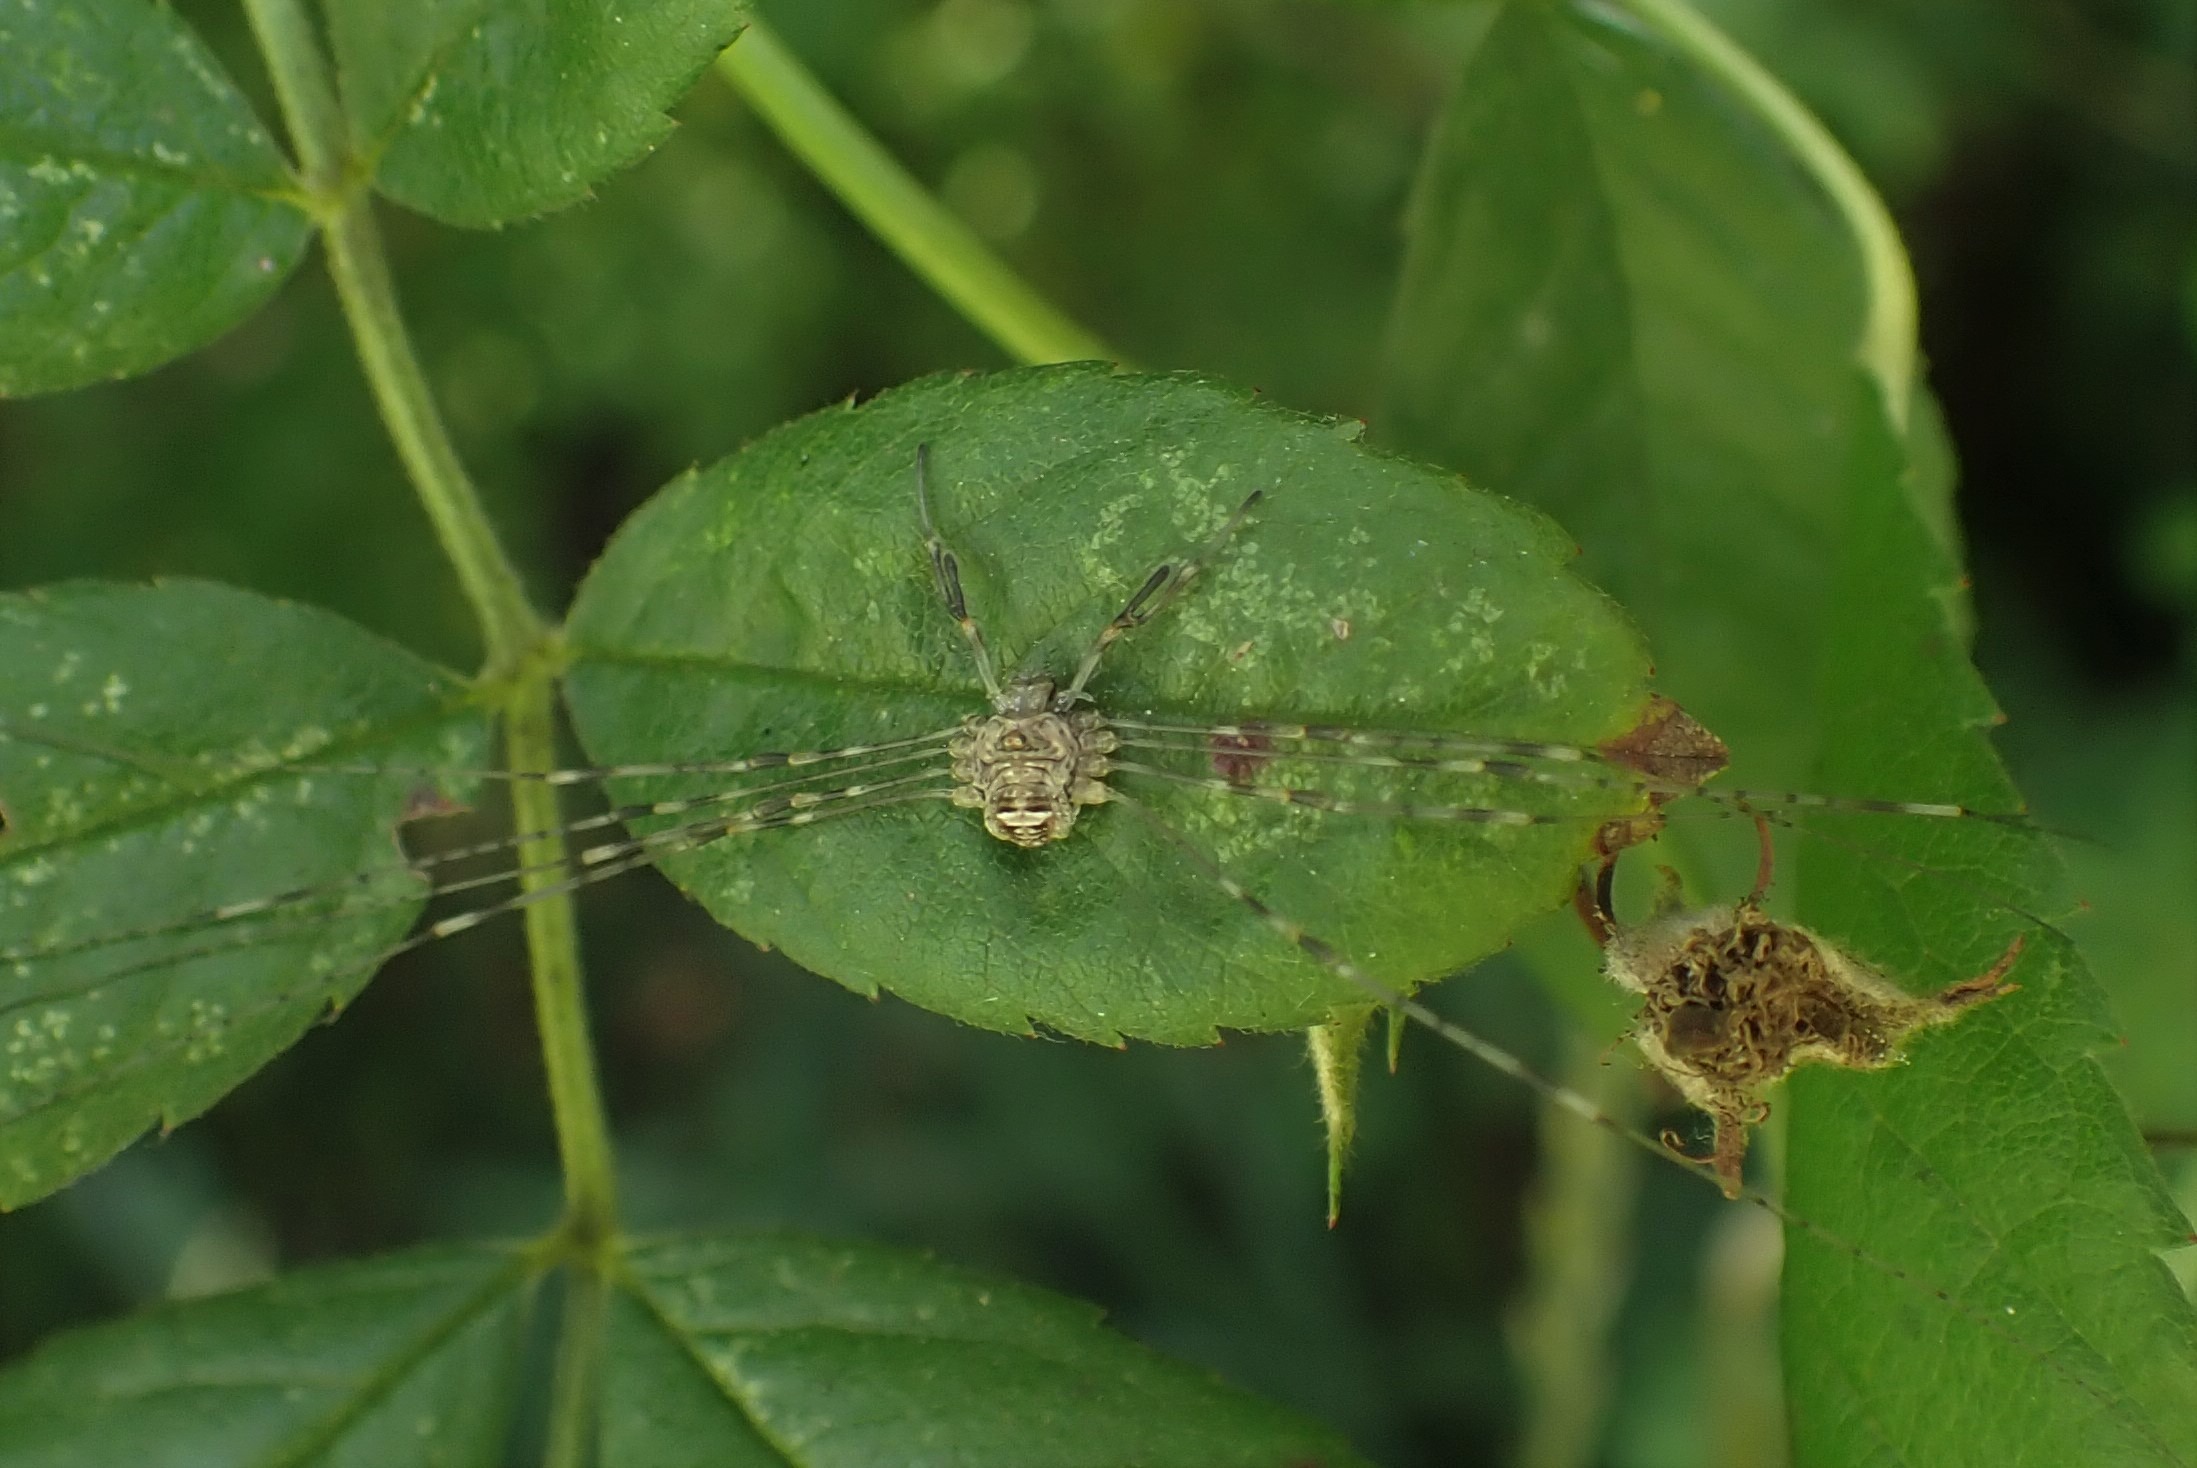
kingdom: Animalia
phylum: Arthropoda
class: Arachnida
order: Opiliones
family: Phalangiidae
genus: Dicranopalpus
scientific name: Dicranopalpus ramosus
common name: Gaffelmejer
